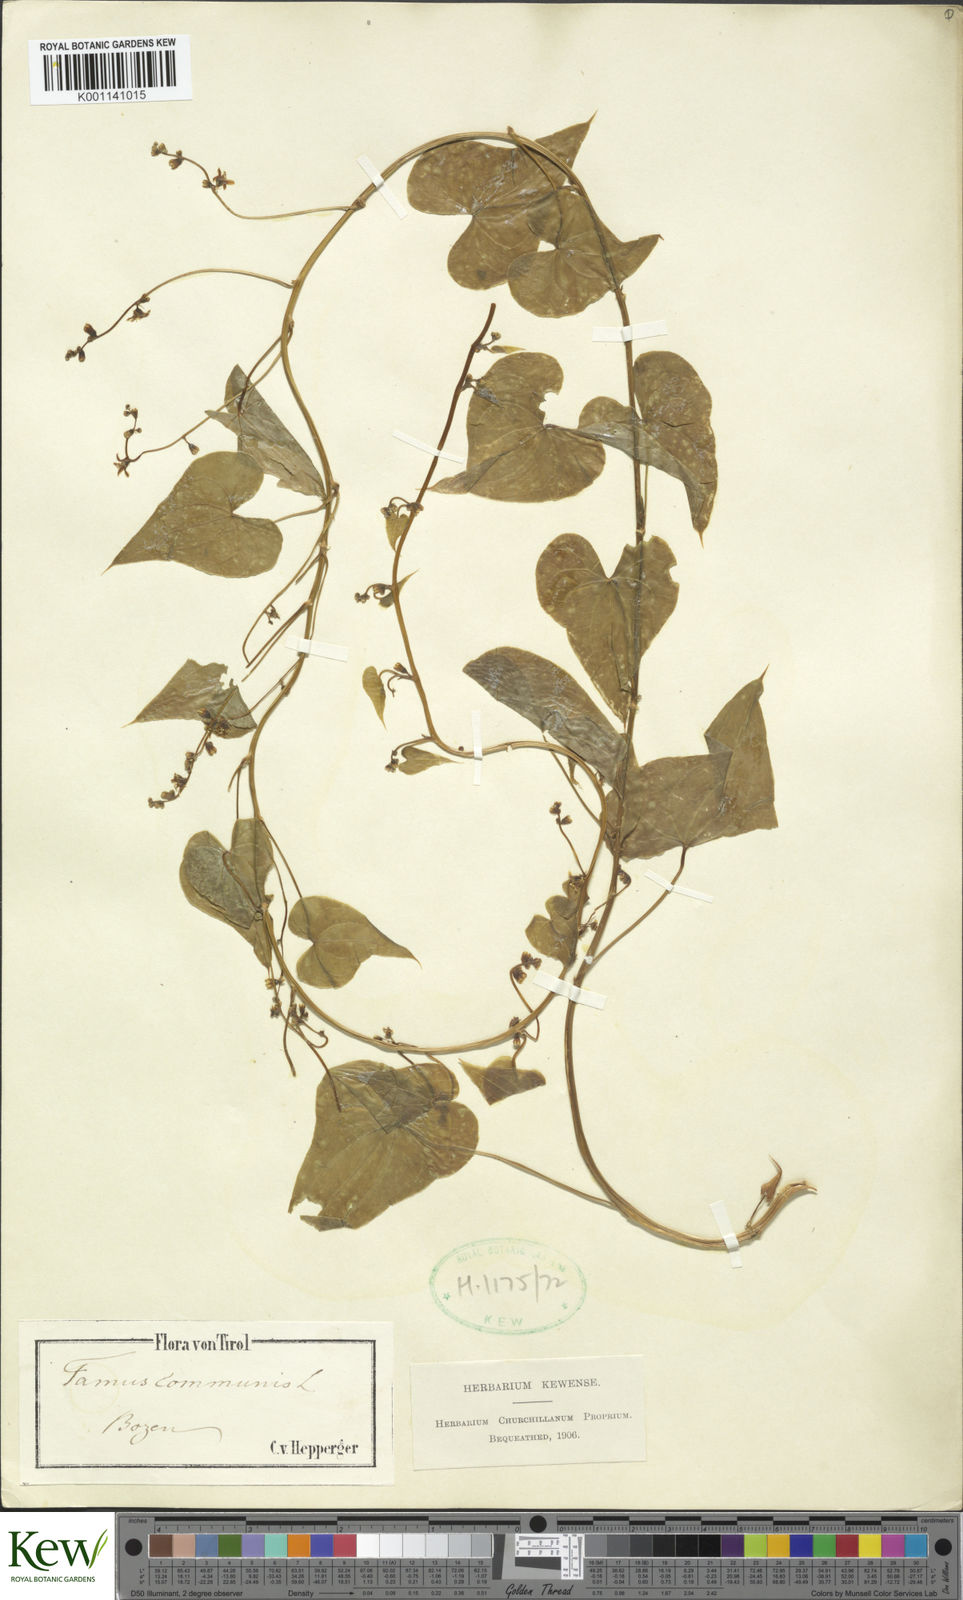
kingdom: Plantae
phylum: Tracheophyta
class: Liliopsida
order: Dioscoreales
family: Dioscoreaceae
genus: Dioscorea
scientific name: Dioscorea communis
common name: Black-bindweed
